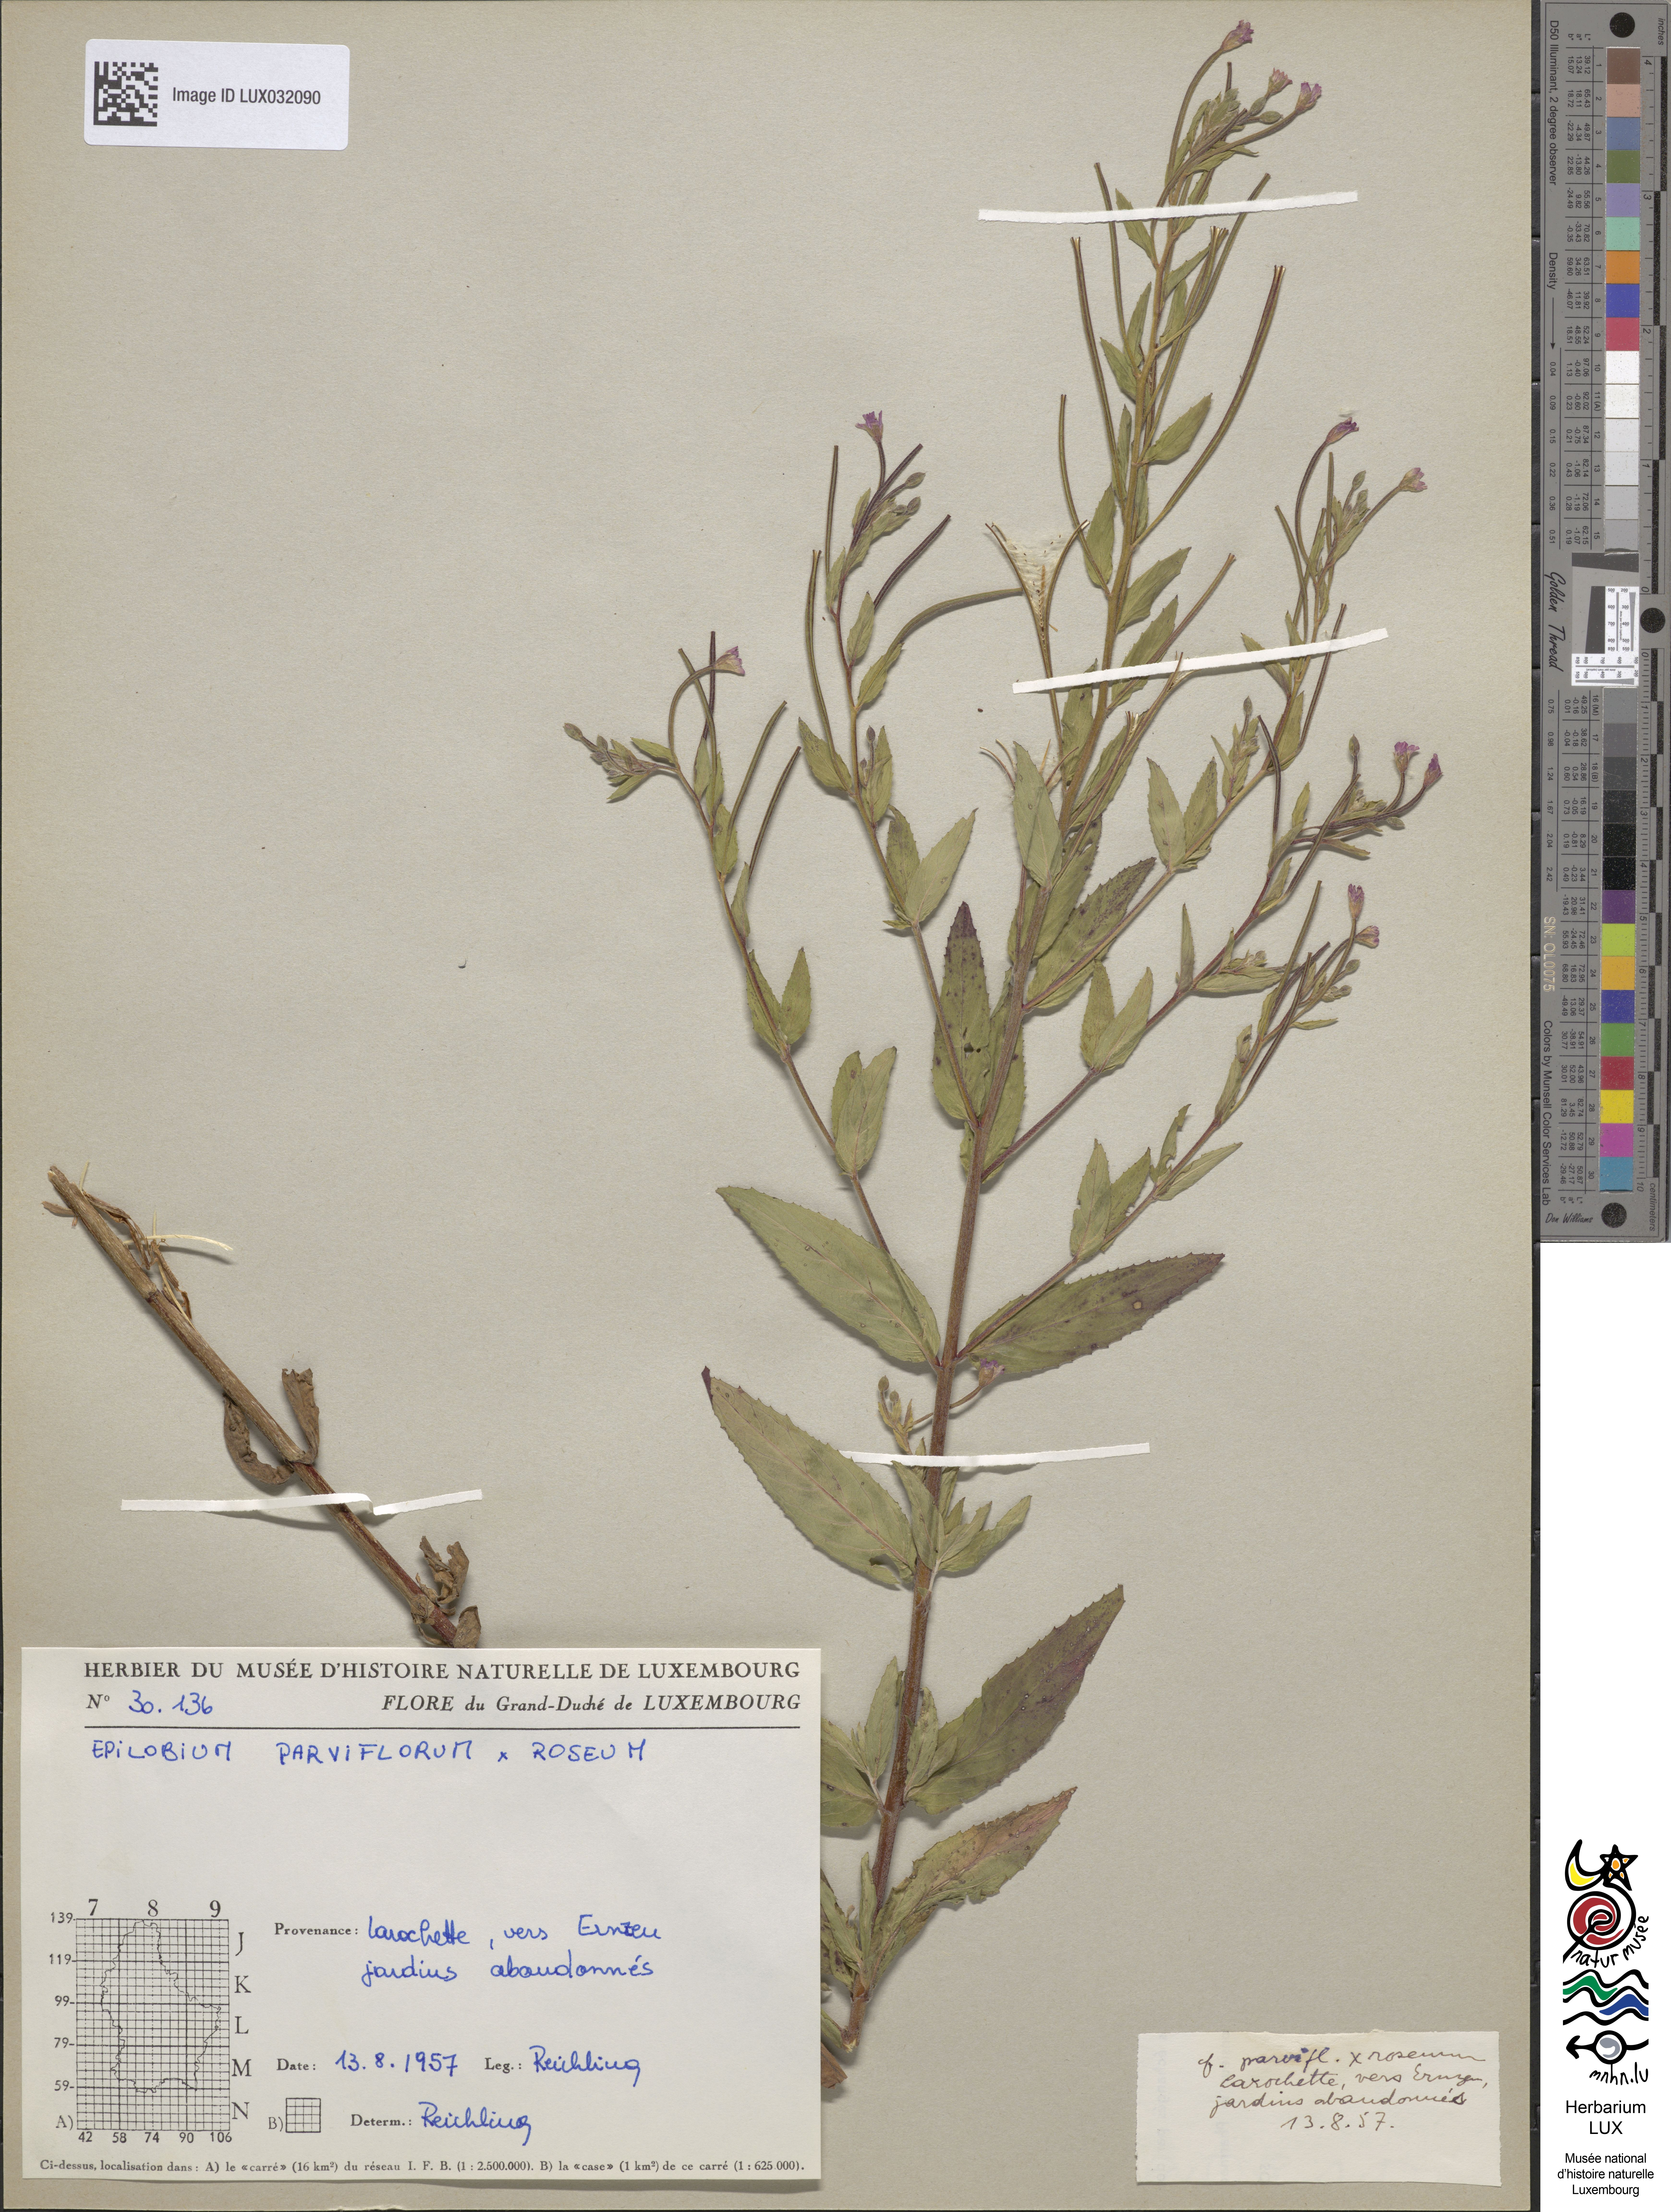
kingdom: Animalia
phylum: Arthropoda
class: Insecta
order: Hymenoptera
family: Megachilidae
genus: Epilobium
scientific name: Epilobium
